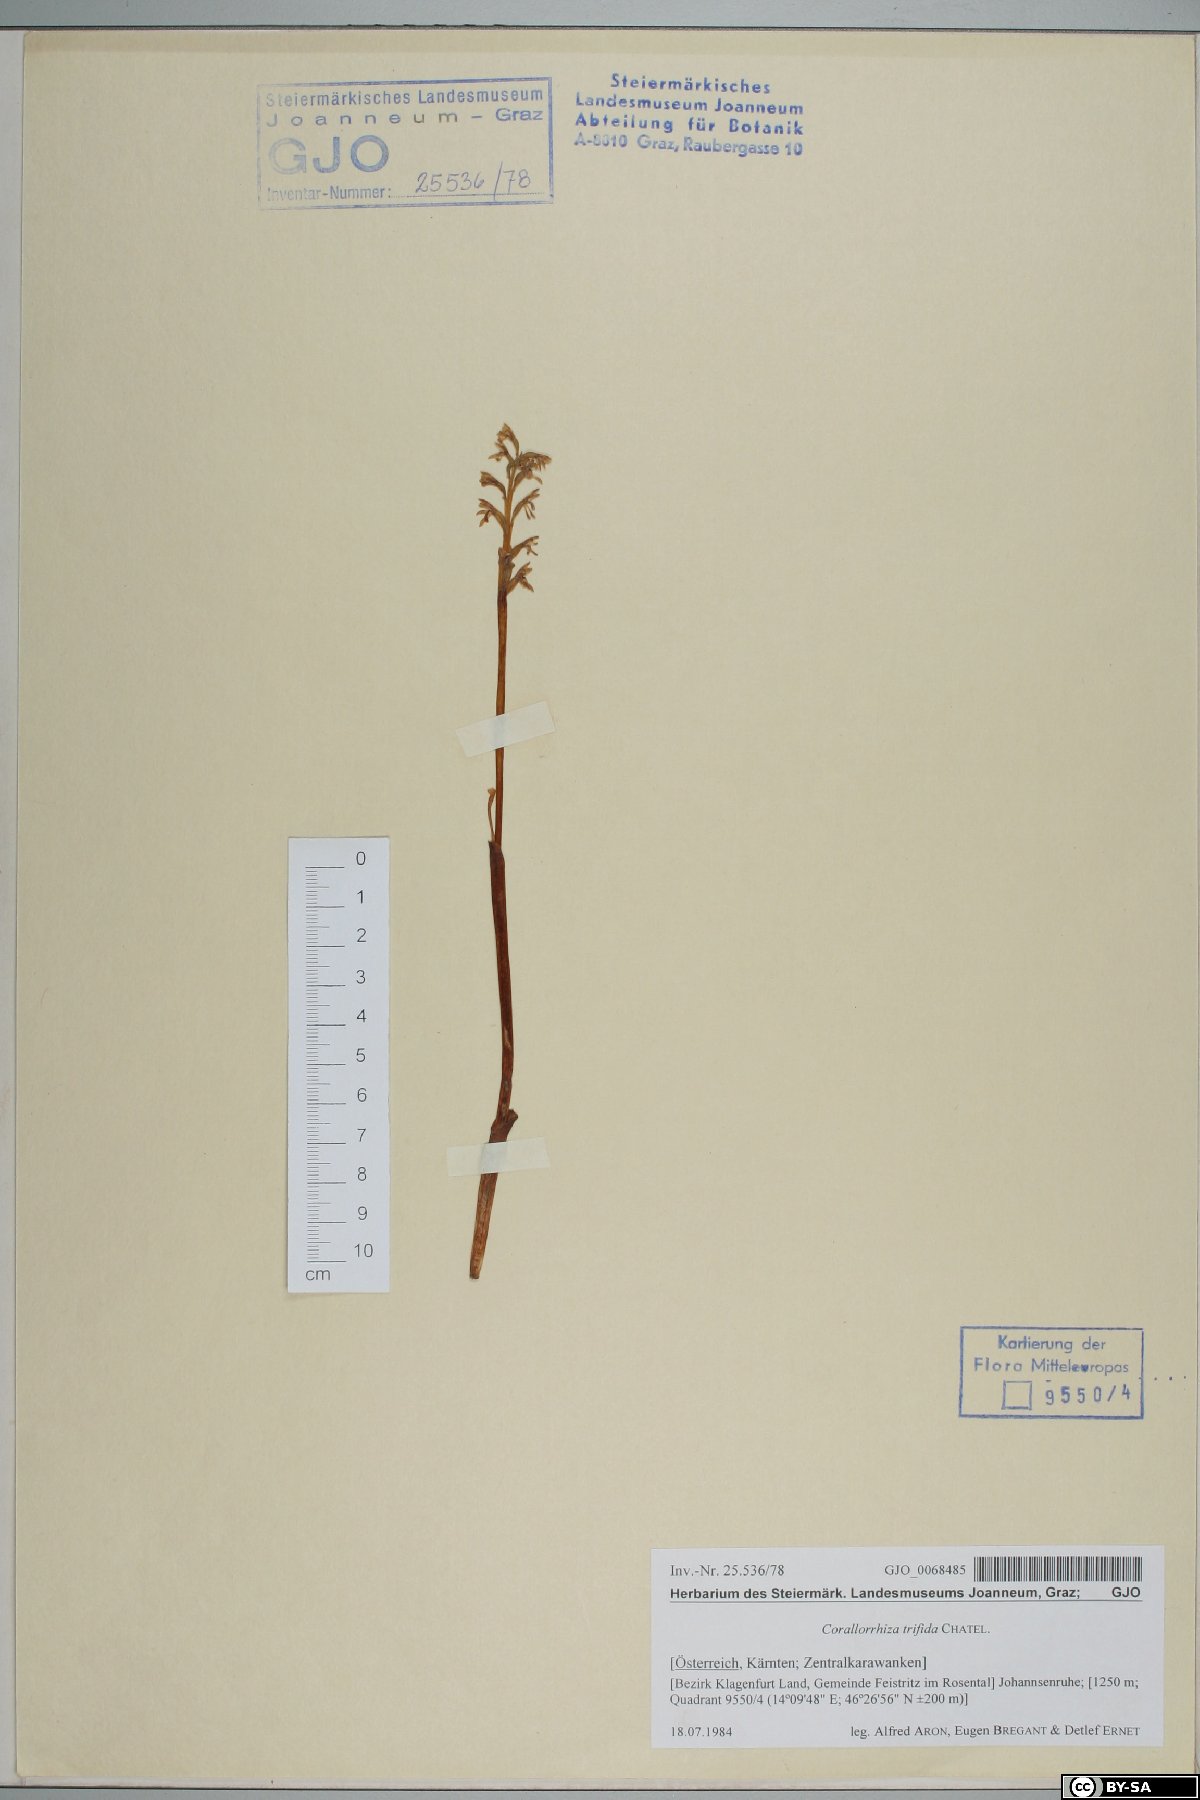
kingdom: Plantae
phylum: Tracheophyta
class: Liliopsida
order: Asparagales
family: Orchidaceae
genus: Corallorhiza
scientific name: Corallorhiza trifida
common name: Yellow coralroot
